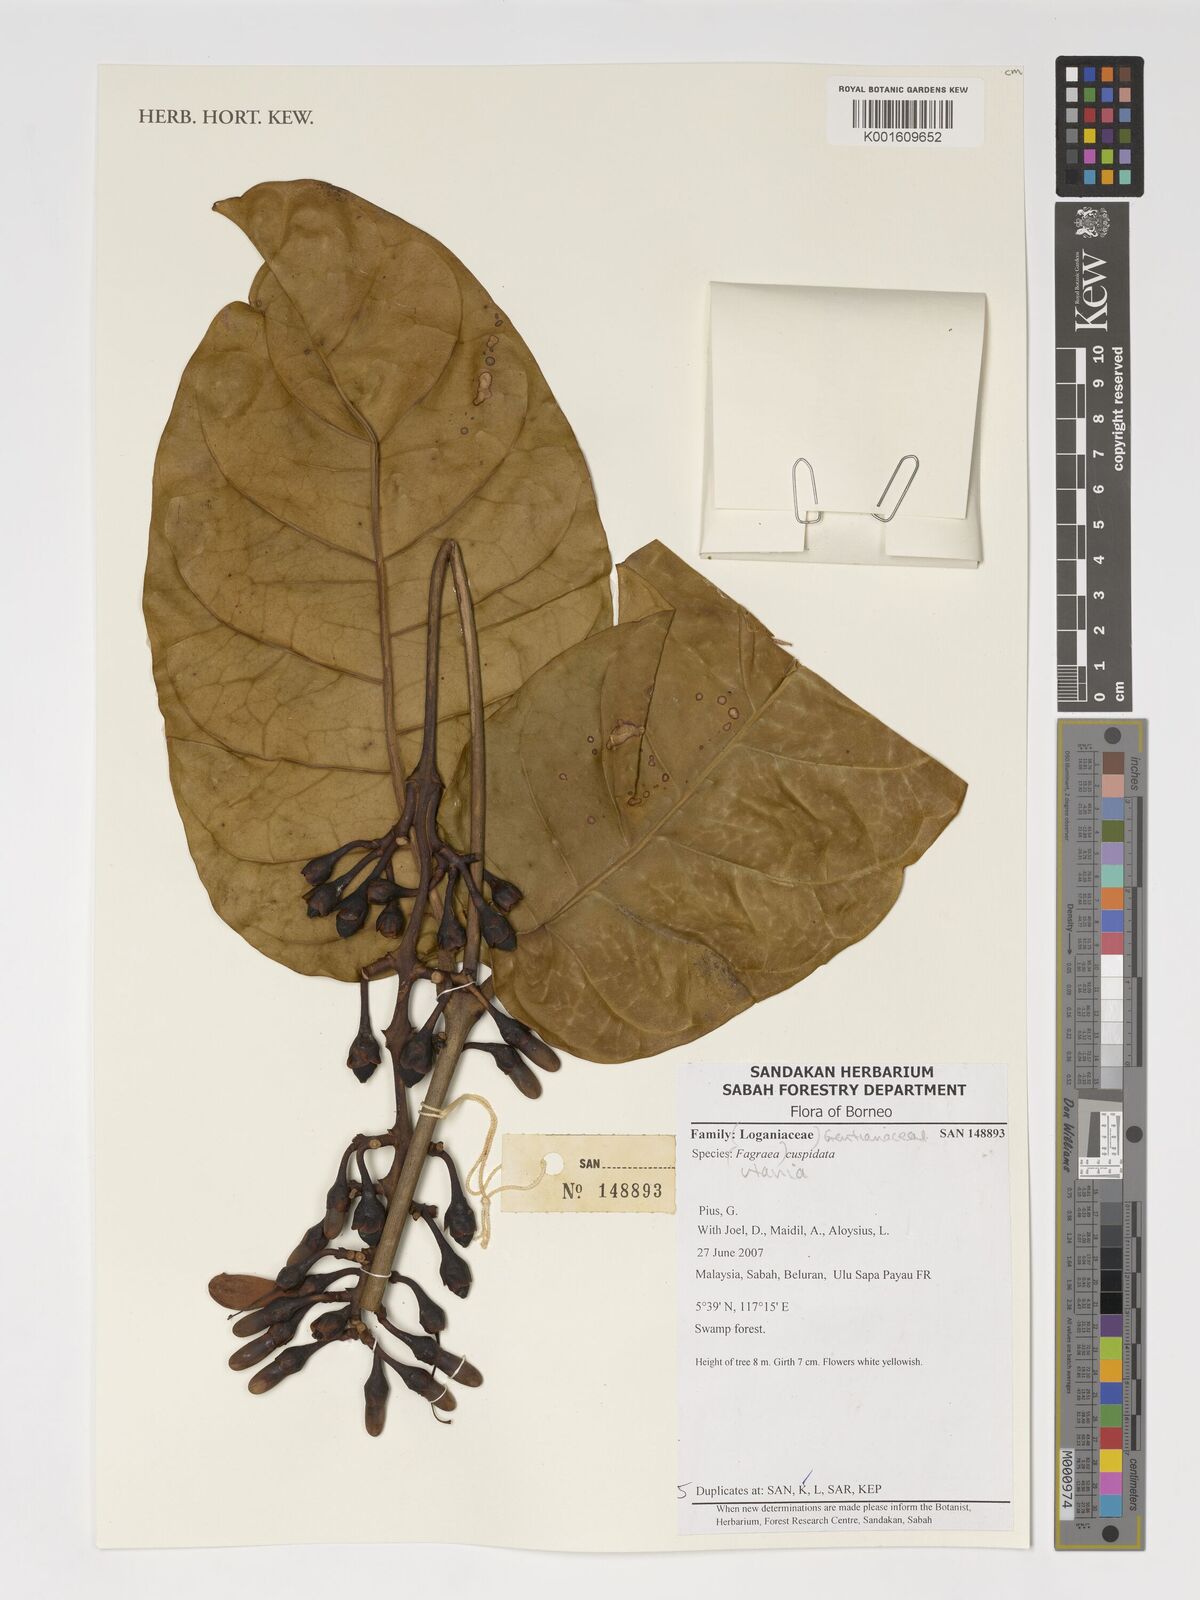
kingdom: Plantae
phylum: Tracheophyta
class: Magnoliopsida
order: Gentianales
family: Gentianaceae
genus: Utania
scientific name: Utania cuspidata
